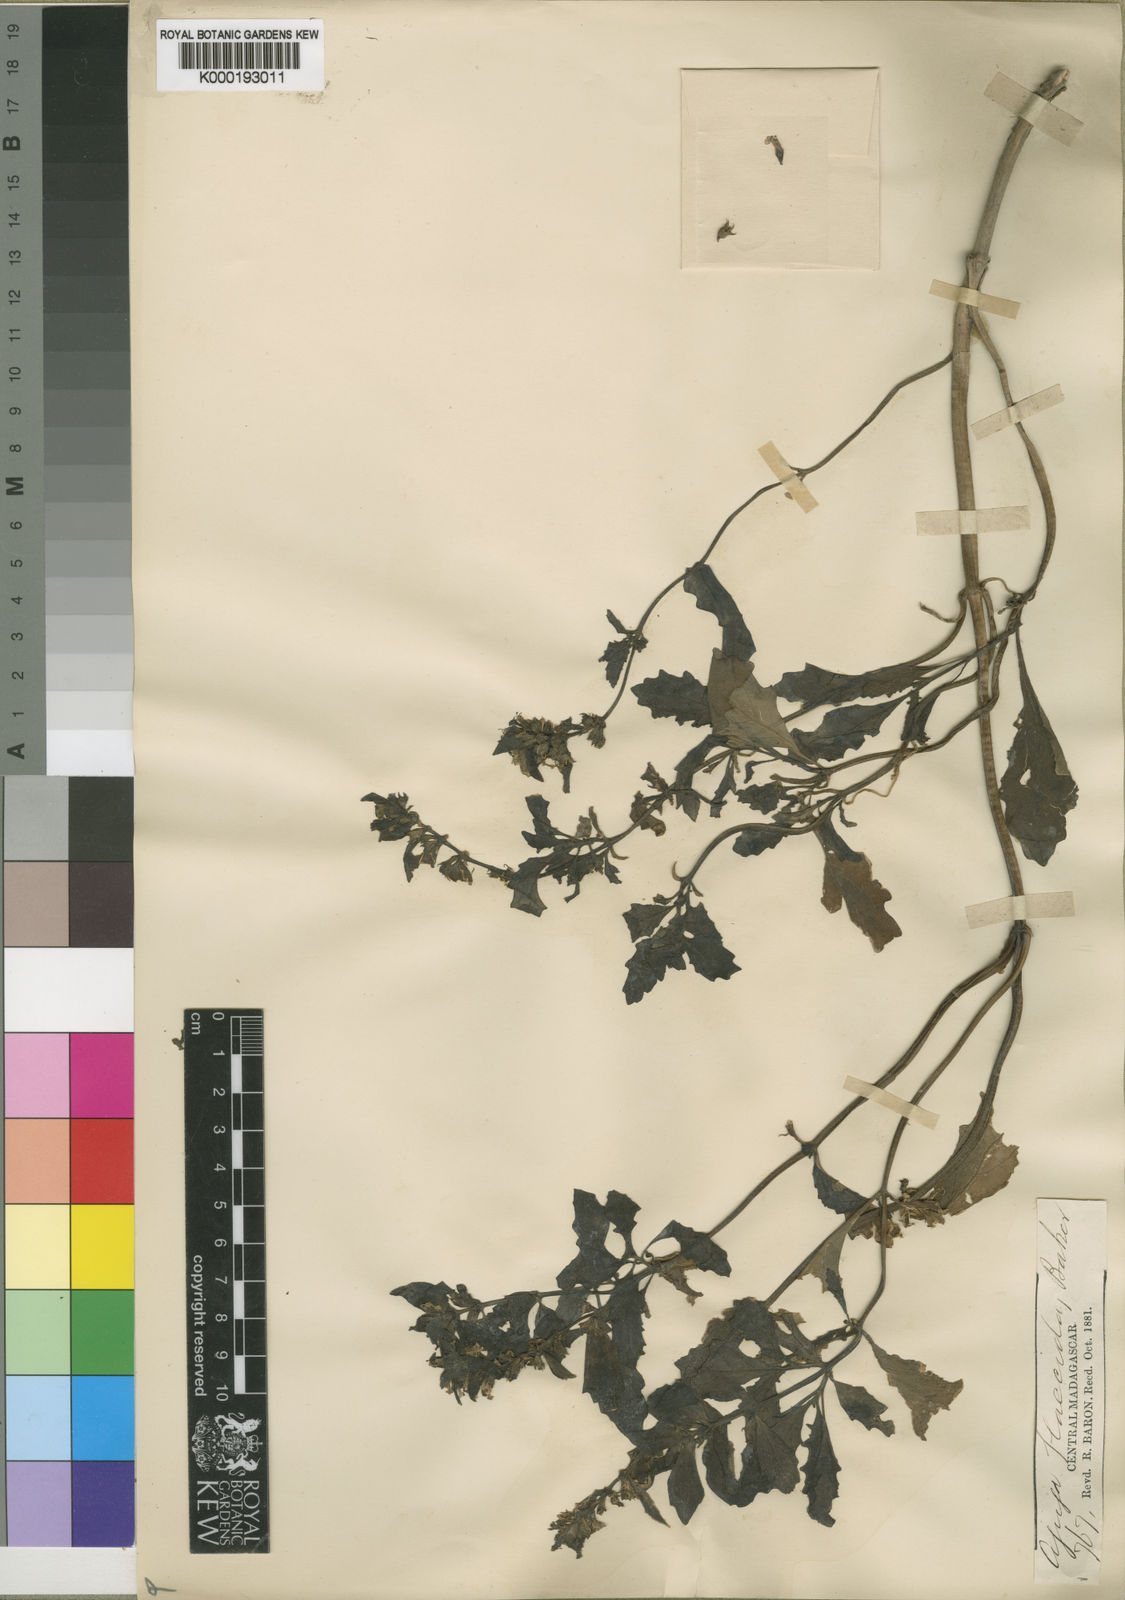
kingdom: Plantae
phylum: Tracheophyta
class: Magnoliopsida
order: Lamiales
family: Lamiaceae
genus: Ajuga
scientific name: Ajuga flaccida
